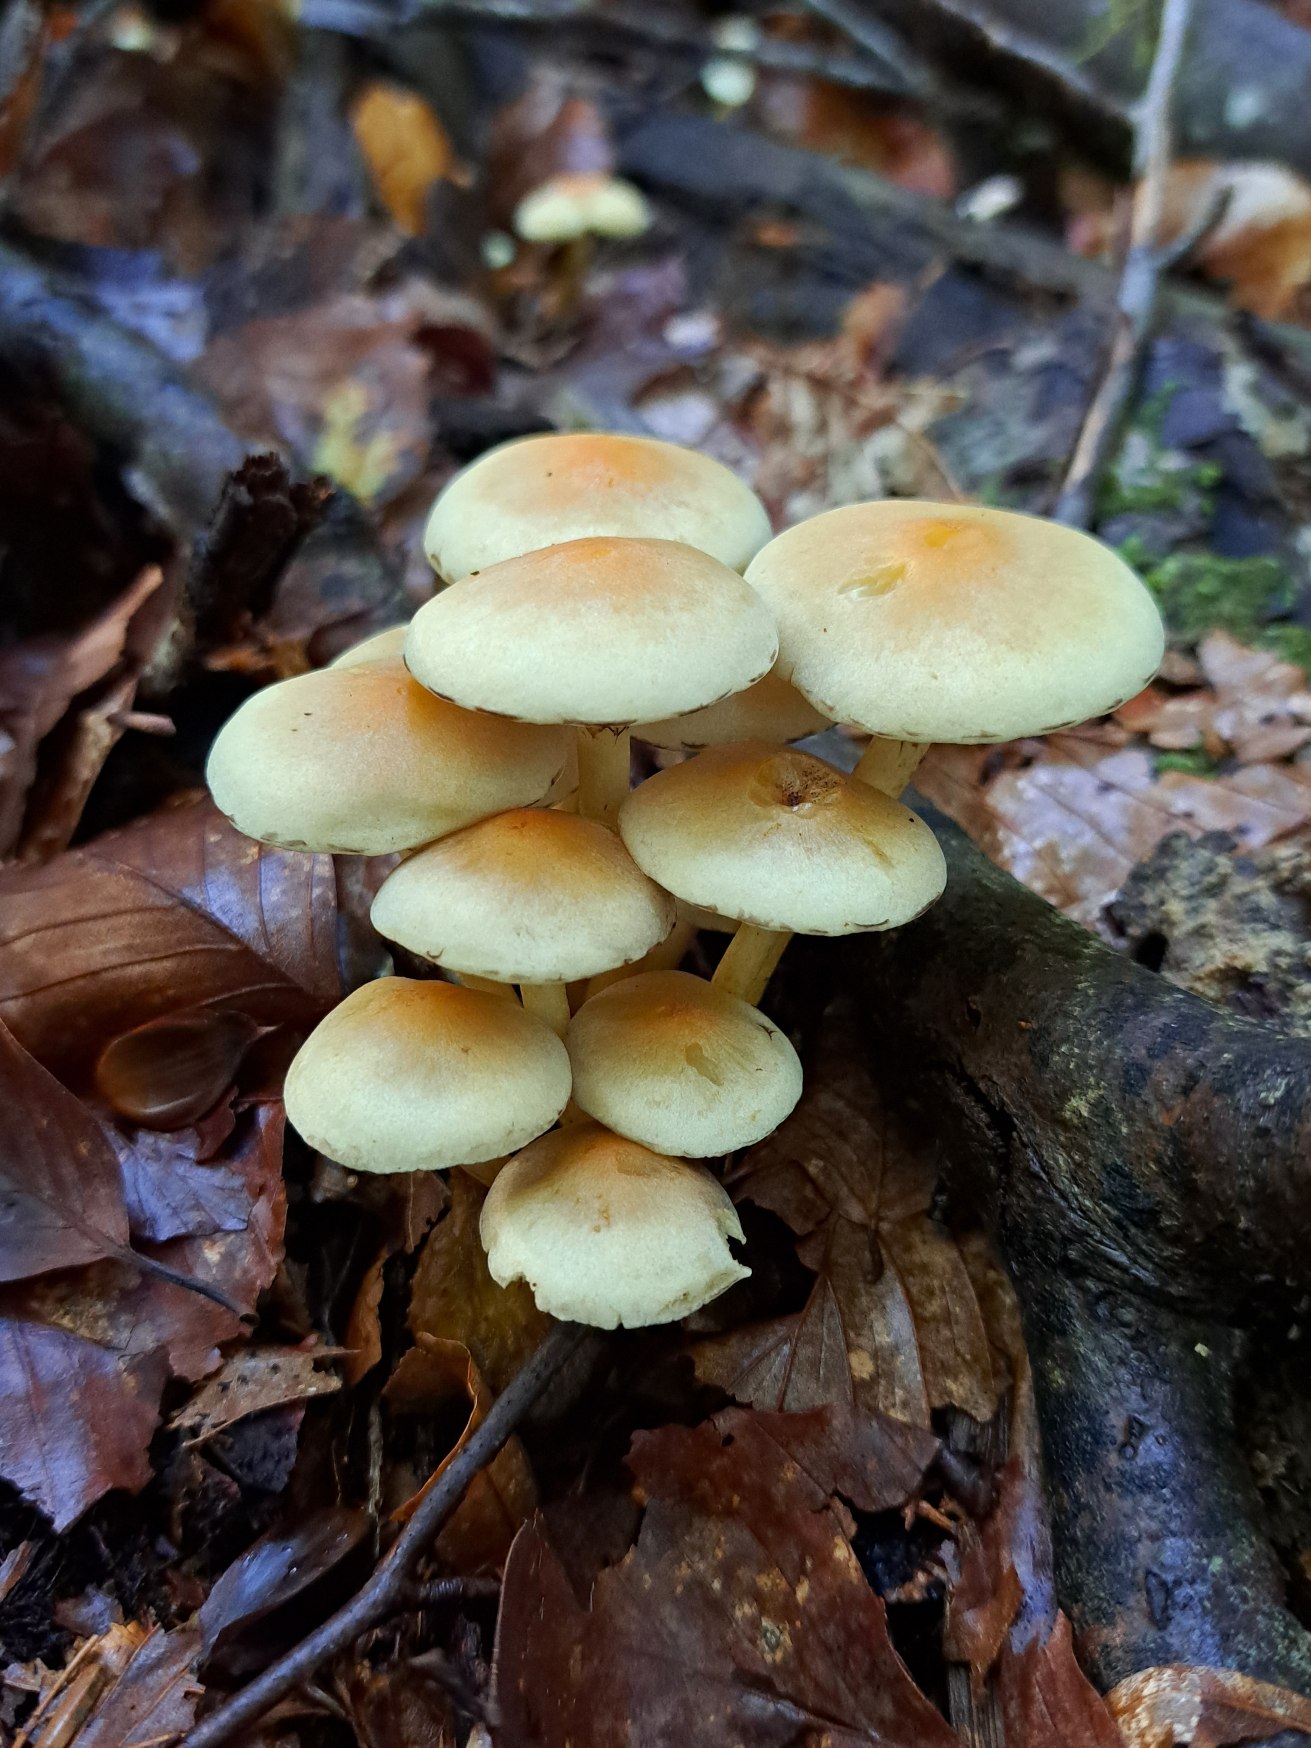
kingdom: Fungi
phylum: Basidiomycota
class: Agaricomycetes
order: Agaricales
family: Strophariaceae
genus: Hypholoma
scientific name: Hypholoma fasciculare
